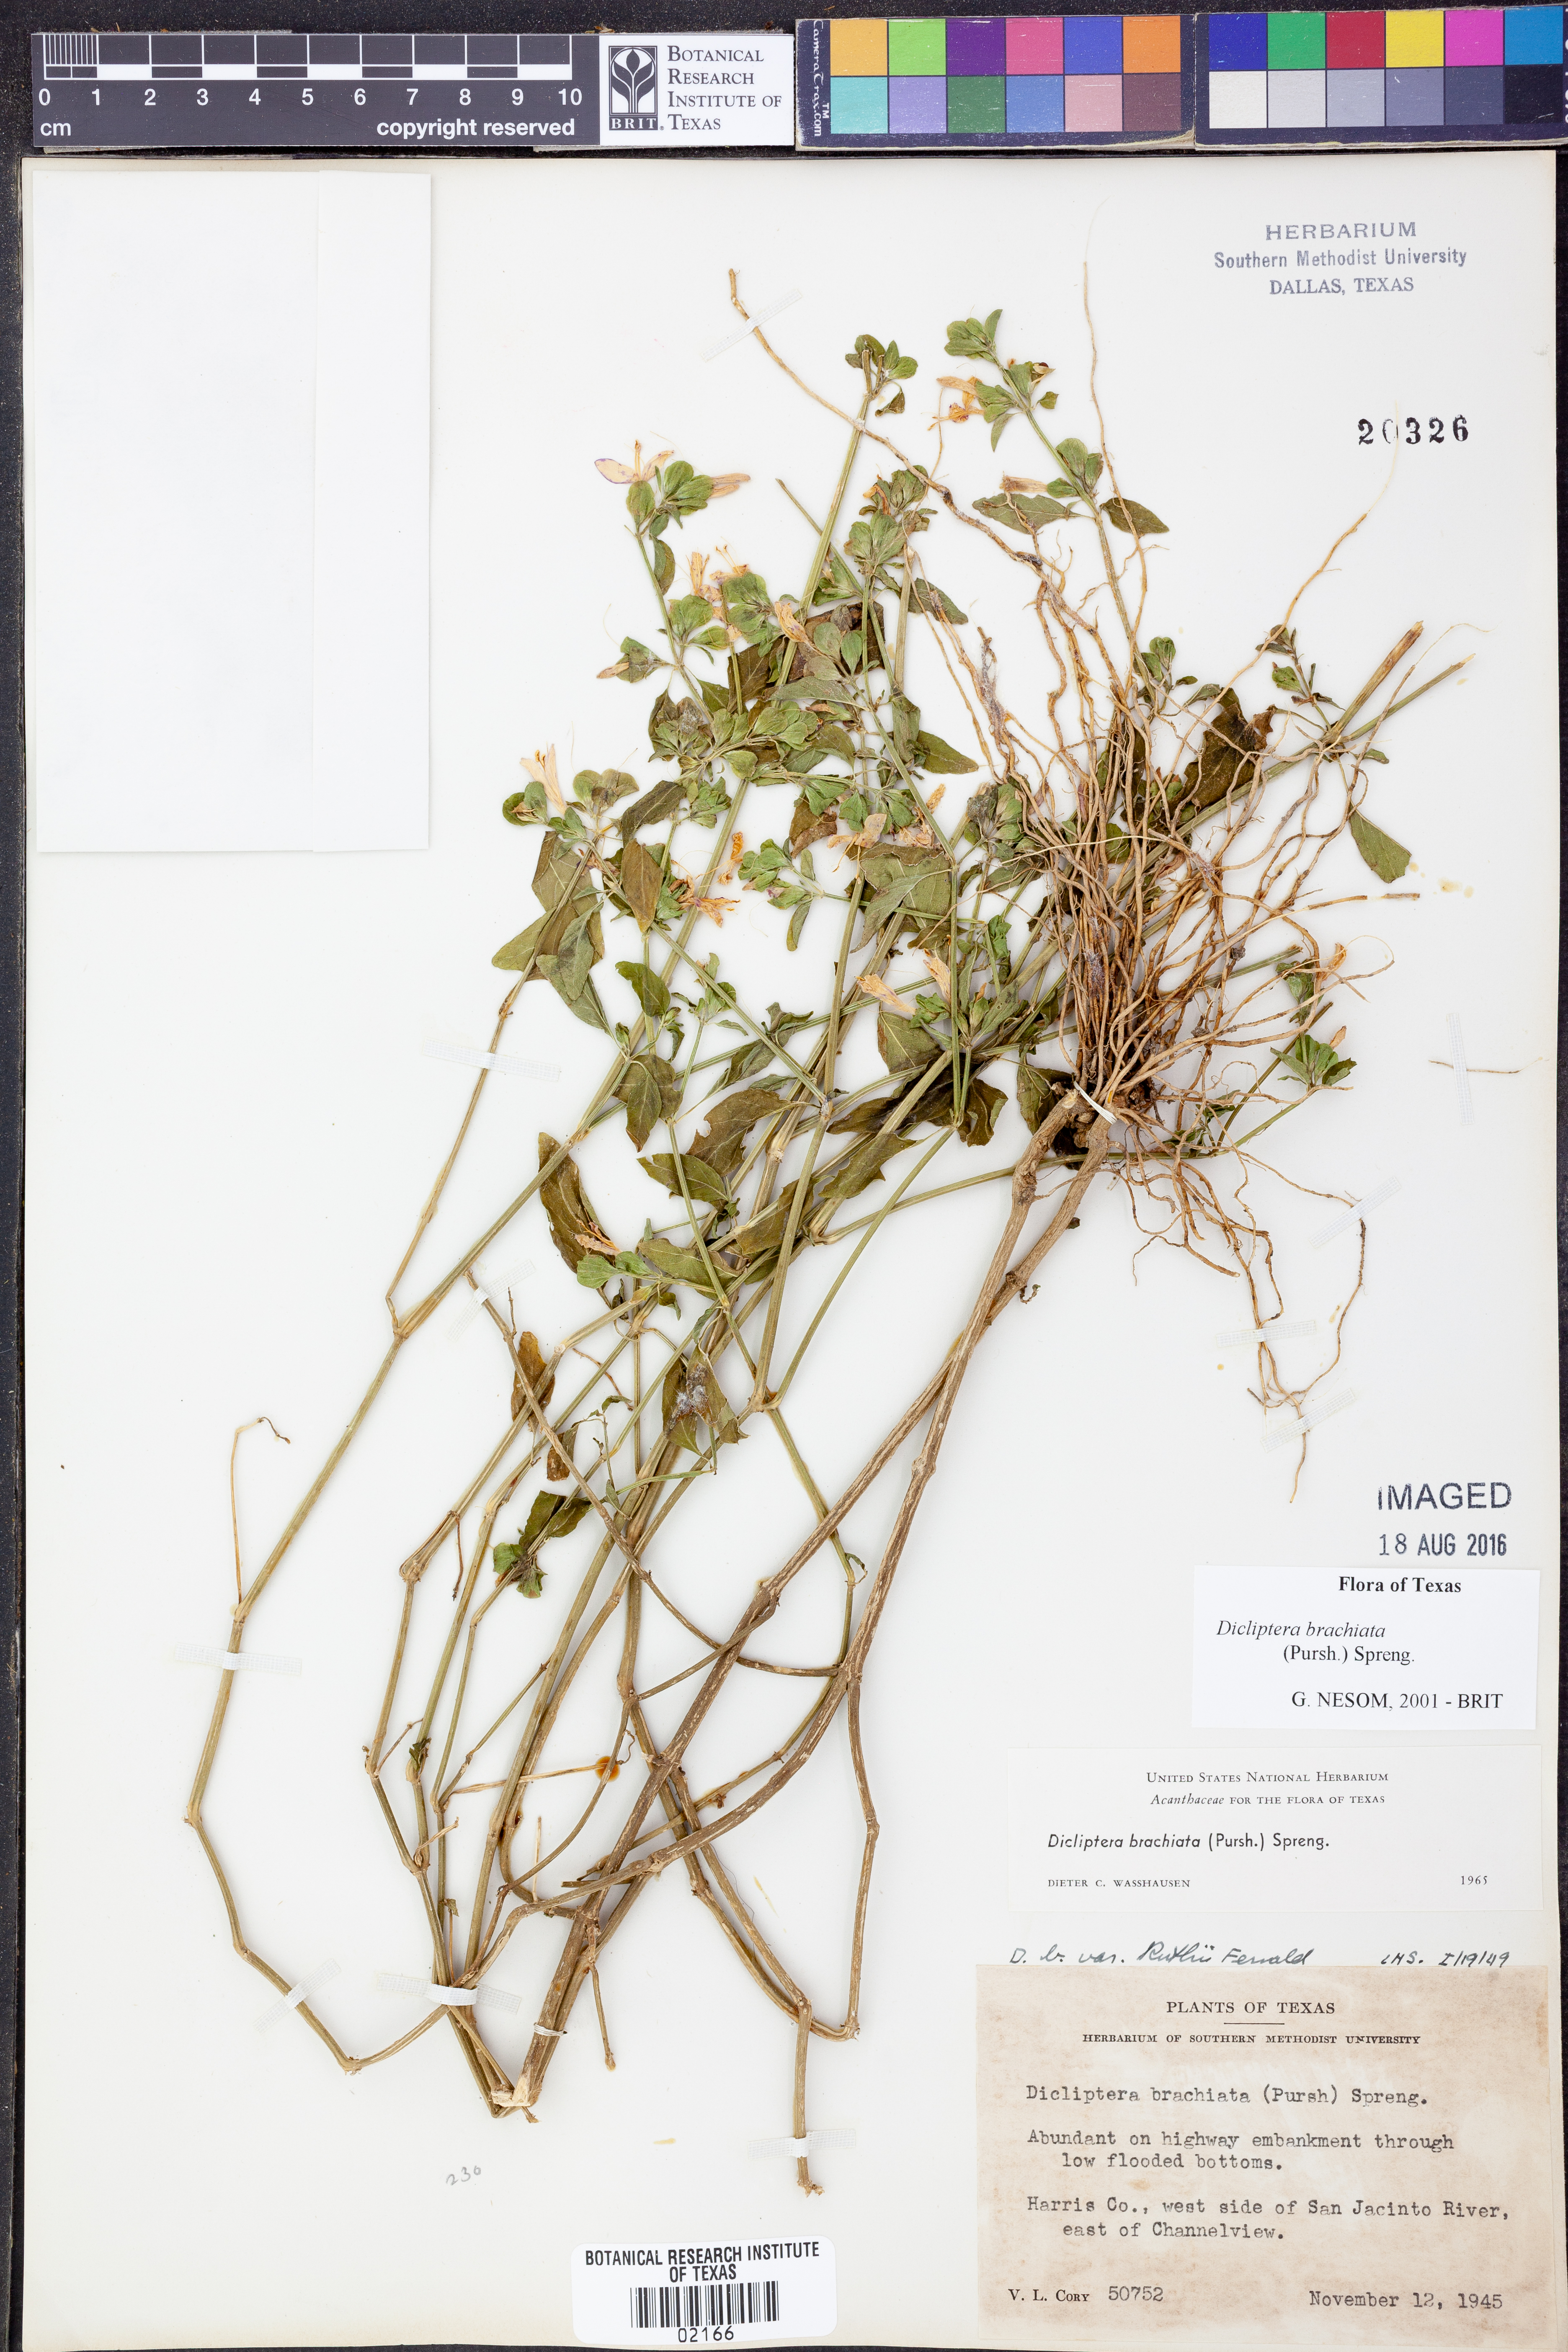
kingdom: Plantae
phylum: Tracheophyta
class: Magnoliopsida
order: Lamiales
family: Acanthaceae
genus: Dicliptera
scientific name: Dicliptera brachiata
